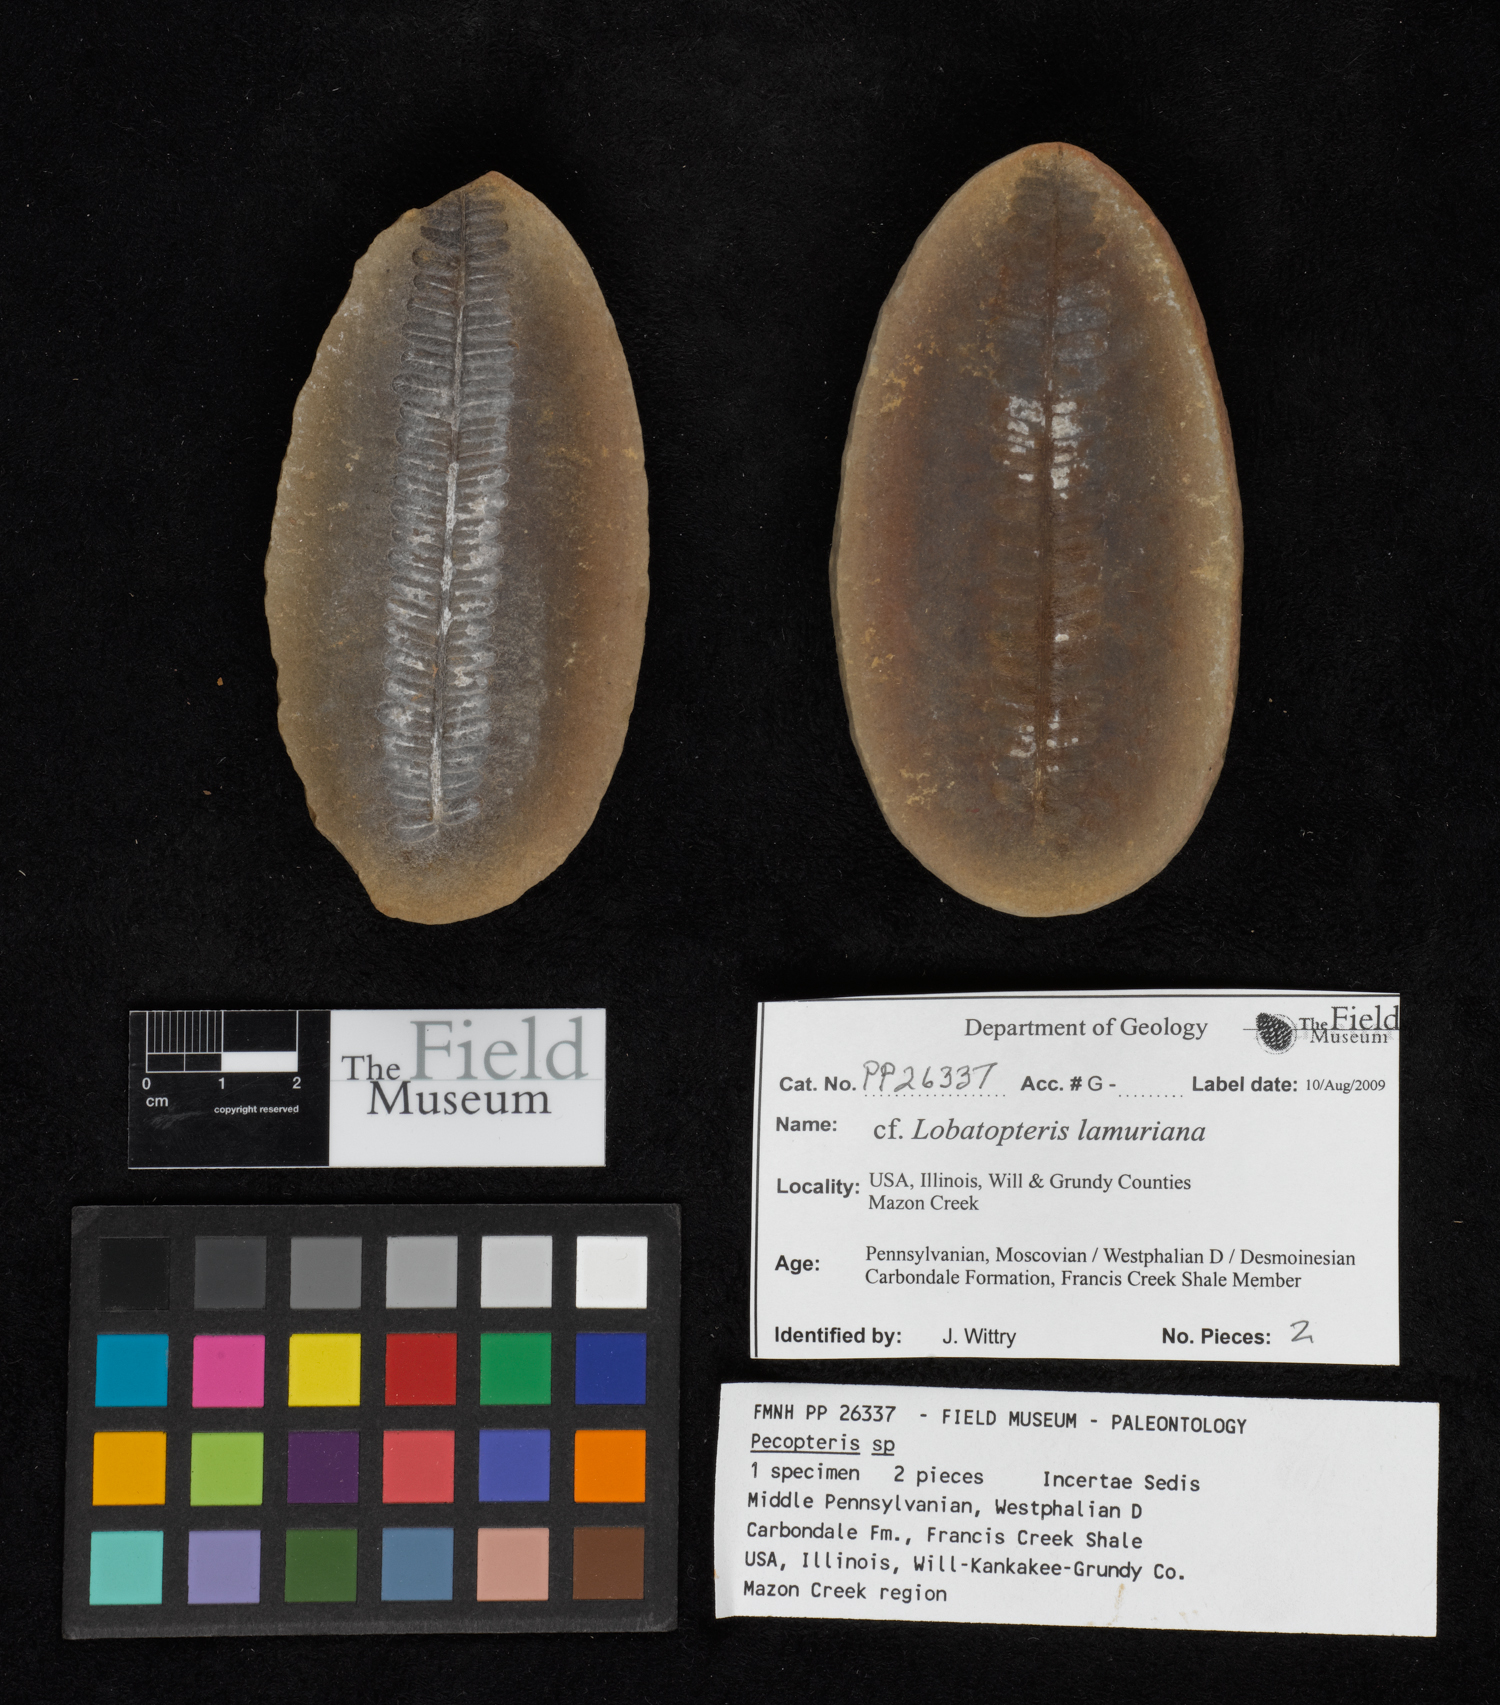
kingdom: Plantae
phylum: Tracheophyta
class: Polypodiopsida
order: Marattiales
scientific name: Marattiales
